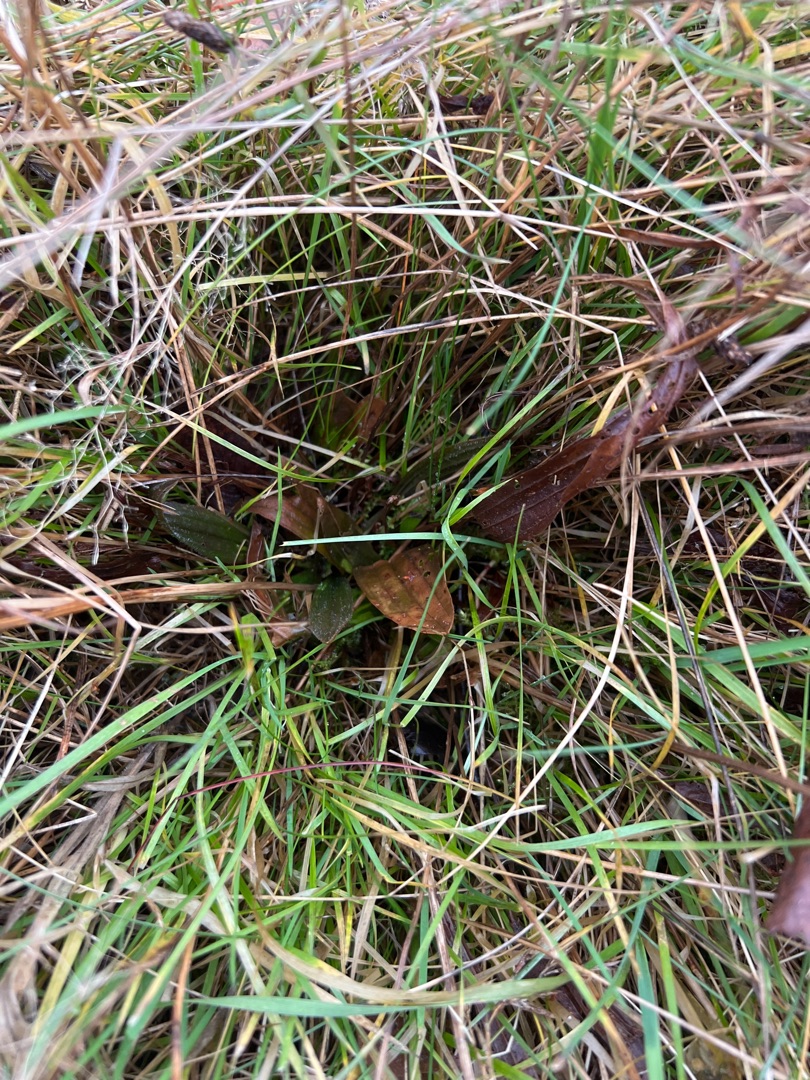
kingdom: Plantae
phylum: Tracheophyta
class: Magnoliopsida
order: Lamiales
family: Plantaginaceae
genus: Plantago
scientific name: Plantago lanceolata
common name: Lancet-vejbred
